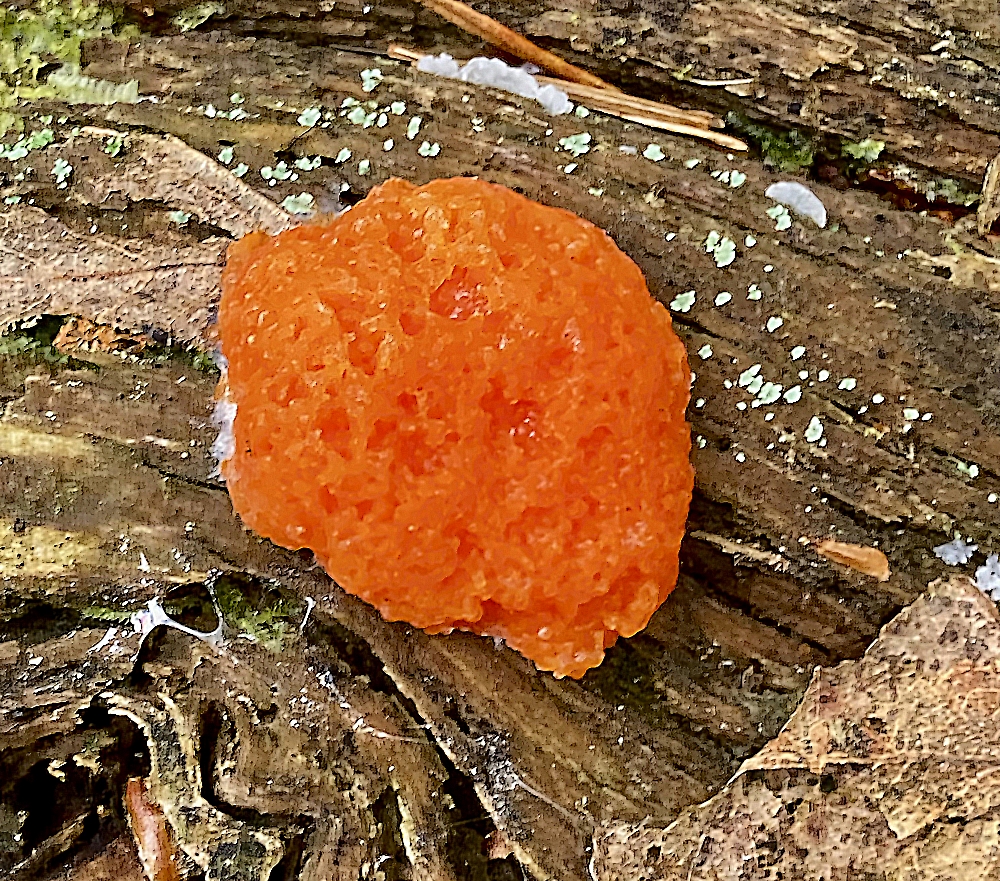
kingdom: Protozoa
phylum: Mycetozoa
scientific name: Mycetozoa
